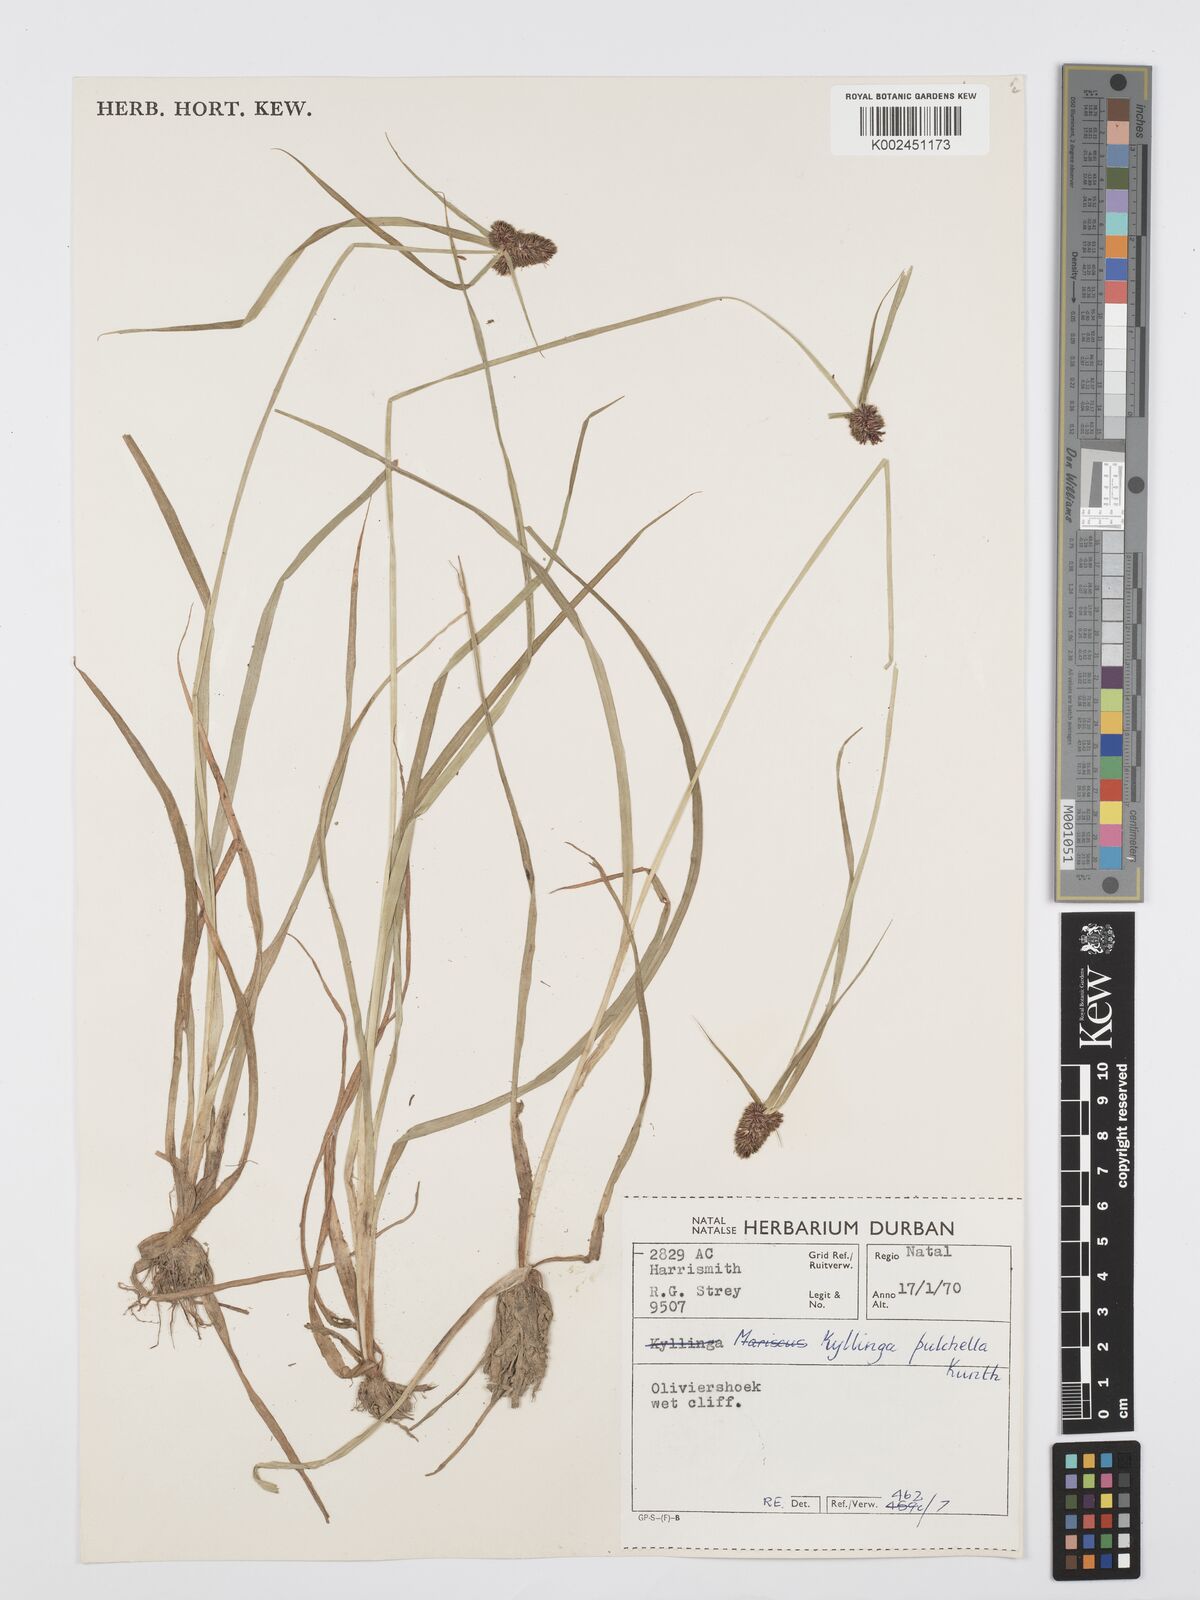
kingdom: Plantae
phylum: Tracheophyta
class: Liliopsida
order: Poales
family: Cyperaceae
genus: Cyperus
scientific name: Cyperus
